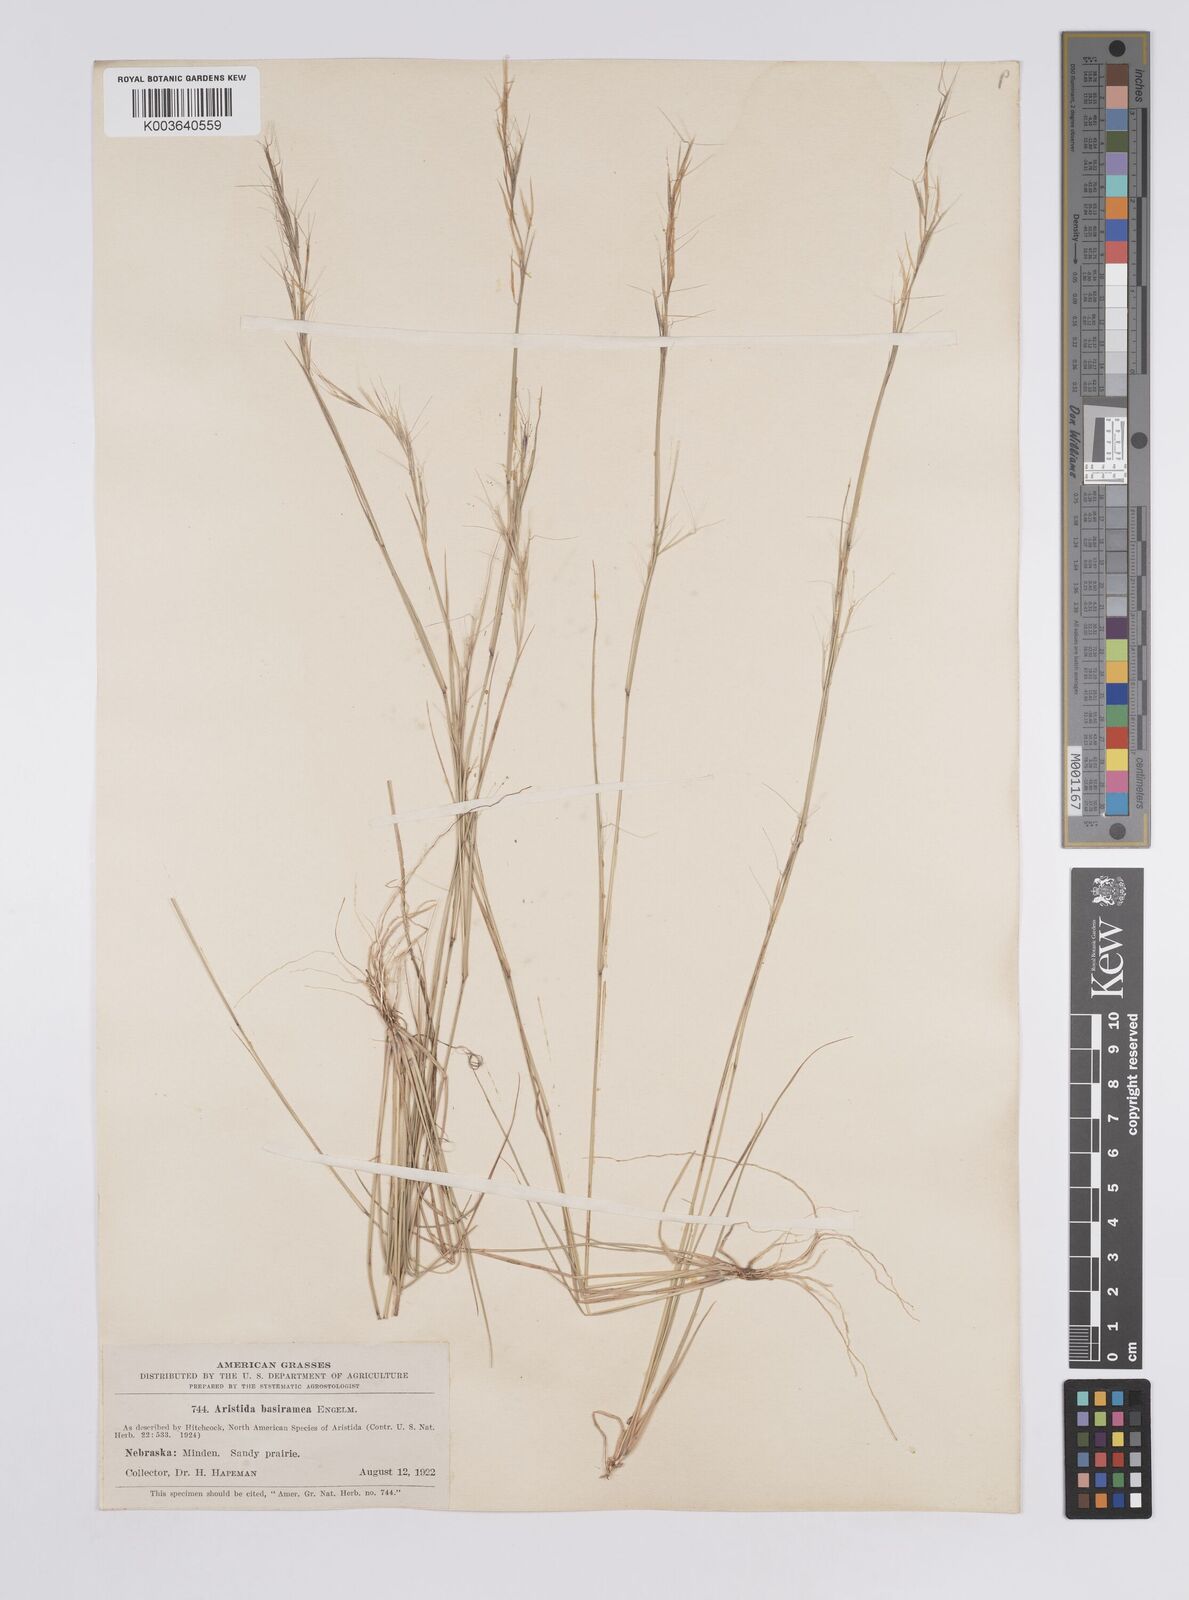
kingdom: Plantae
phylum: Tracheophyta
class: Liliopsida
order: Poales
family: Poaceae
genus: Aristida
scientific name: Aristida basiramea
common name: Forked three-awned grass
